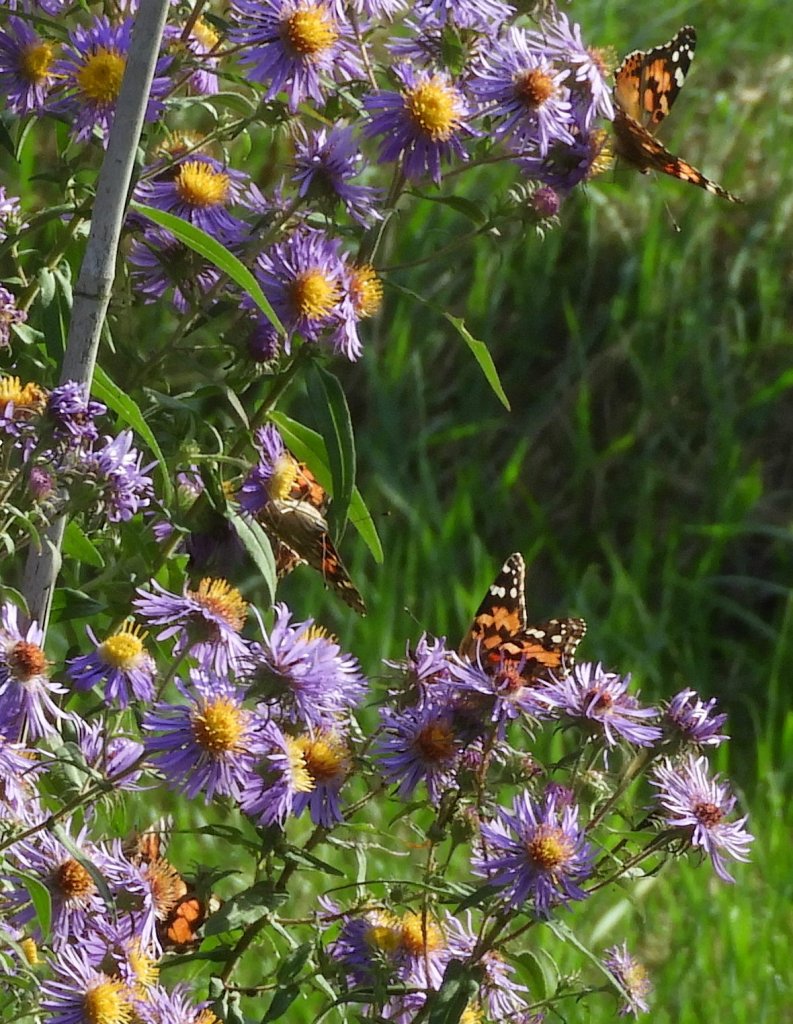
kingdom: Animalia
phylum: Arthropoda
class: Insecta
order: Lepidoptera
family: Nymphalidae
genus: Vanessa
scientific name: Vanessa cardui
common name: Painted Lady
